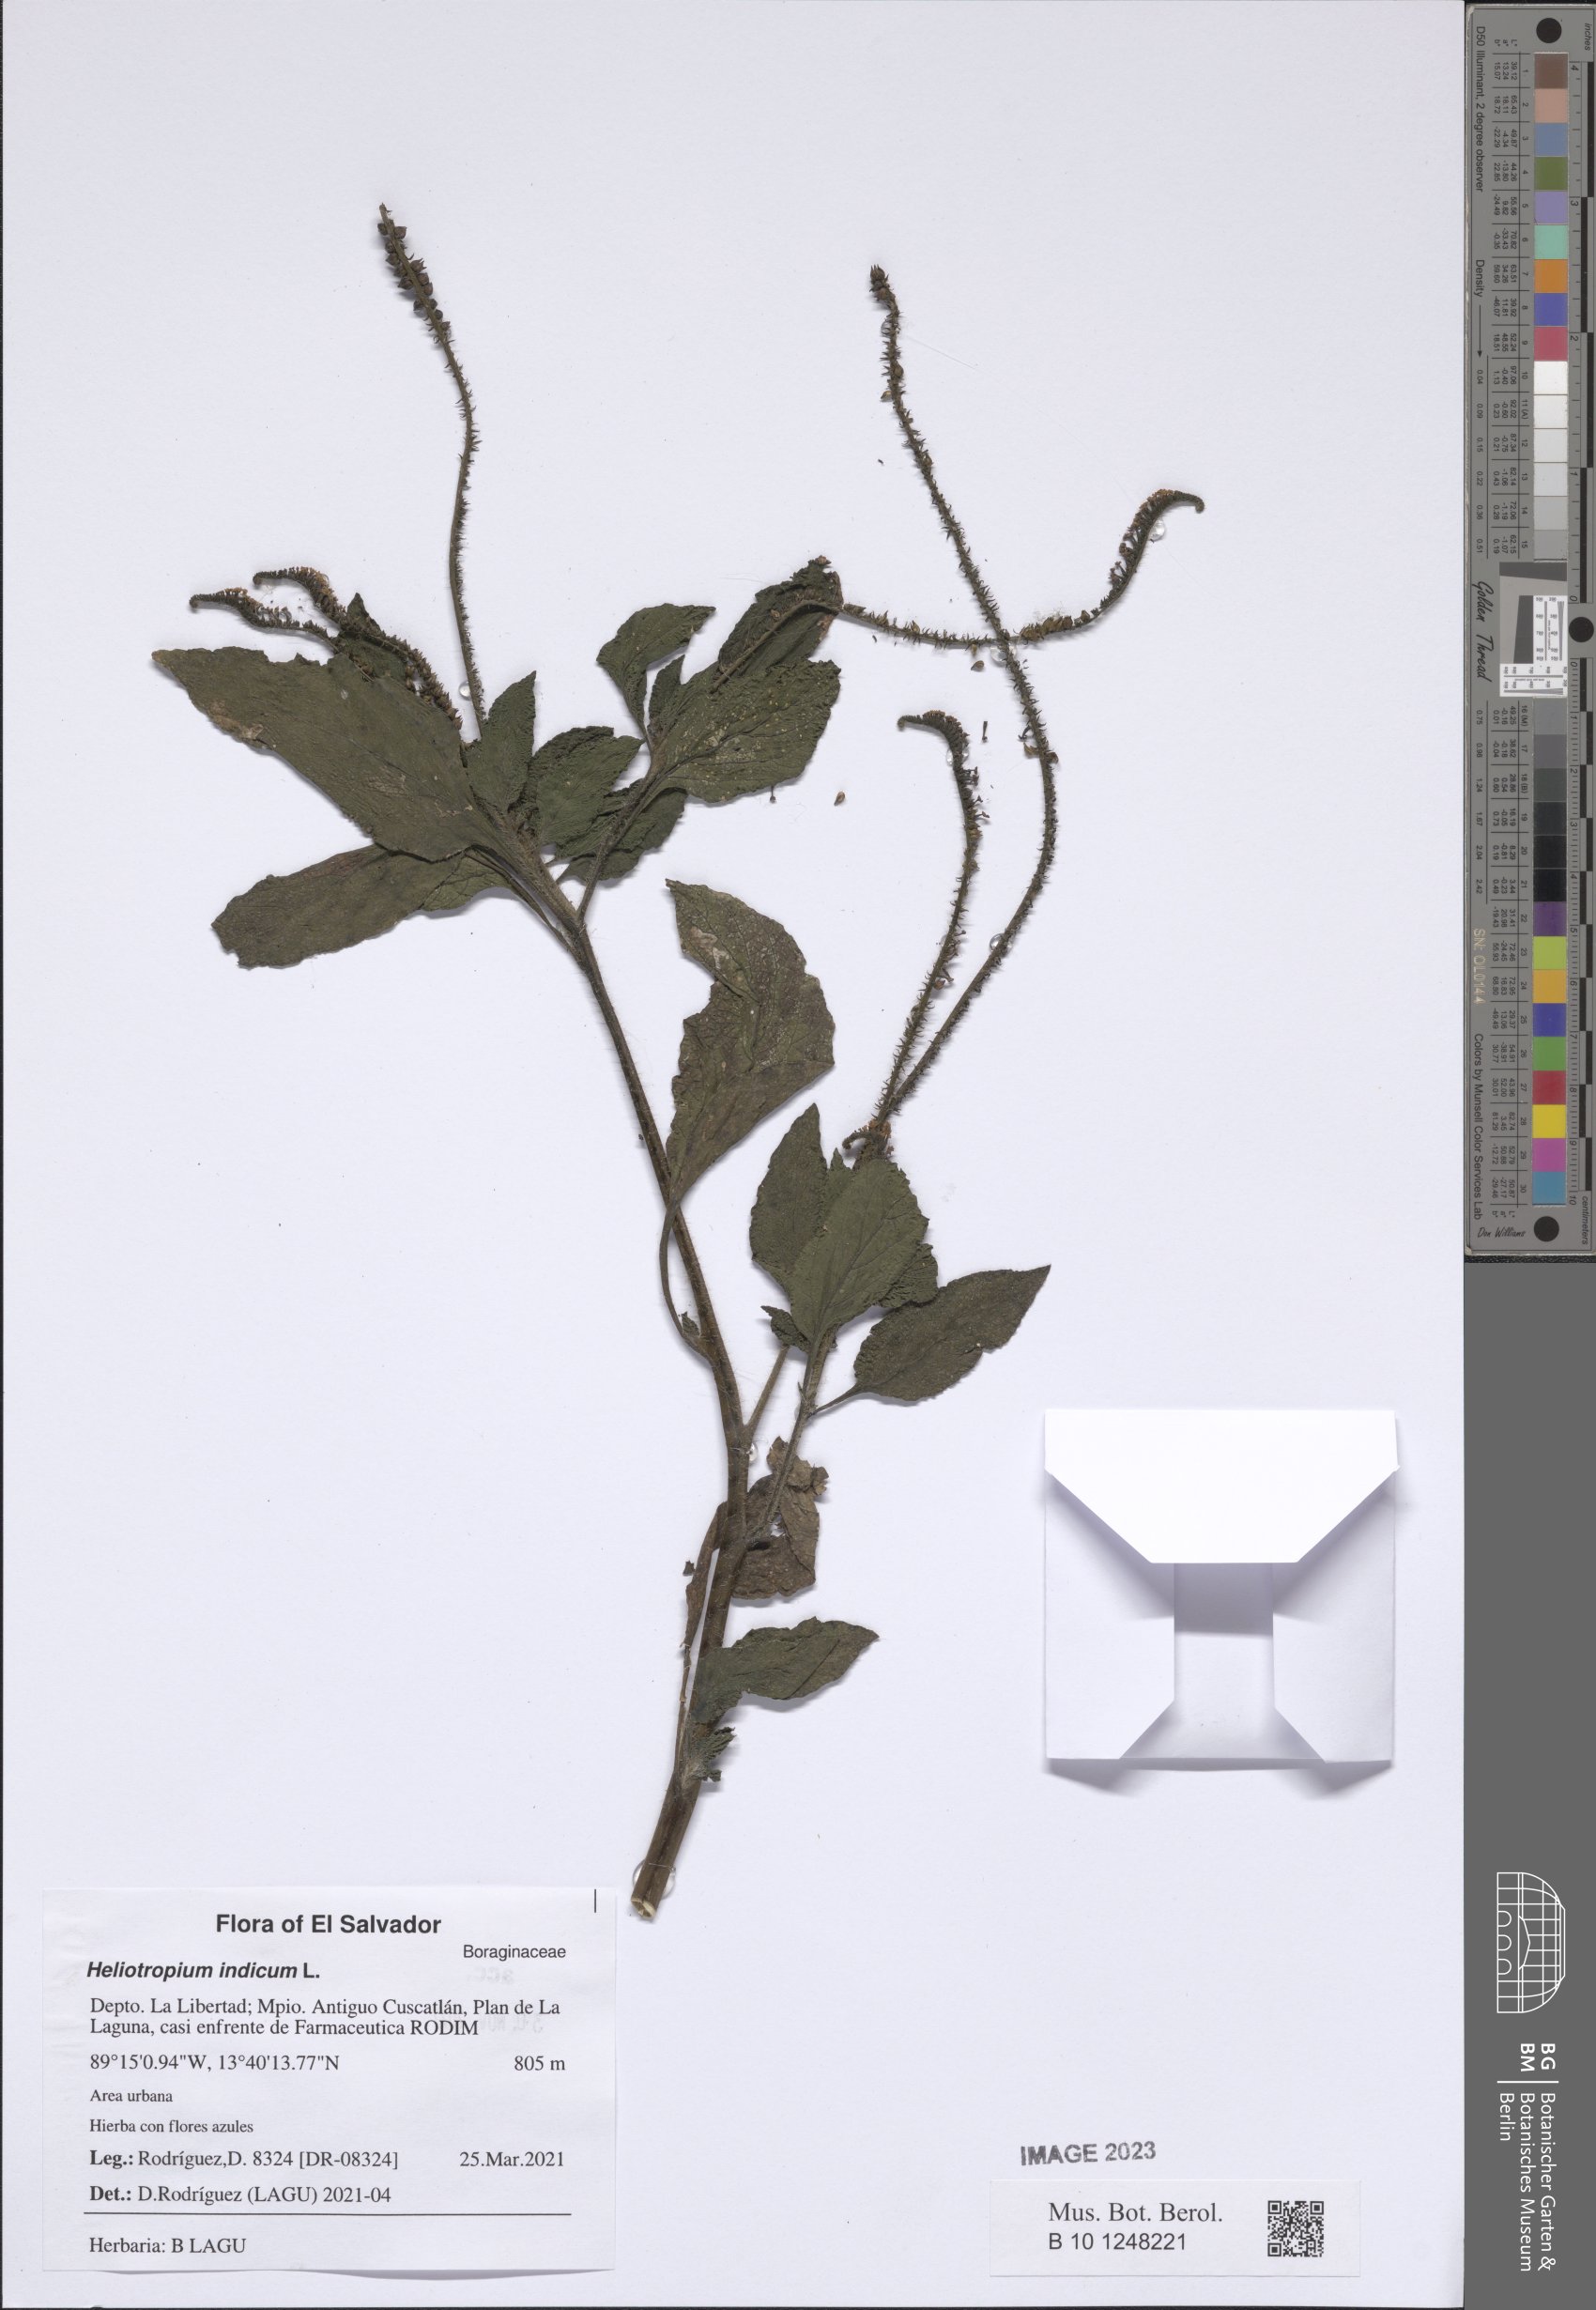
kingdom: Plantae
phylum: Tracheophyta
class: Magnoliopsida
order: Boraginales
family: Heliotropiaceae
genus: Heliotropium
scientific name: Heliotropium indicum
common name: Indian heliotrope
